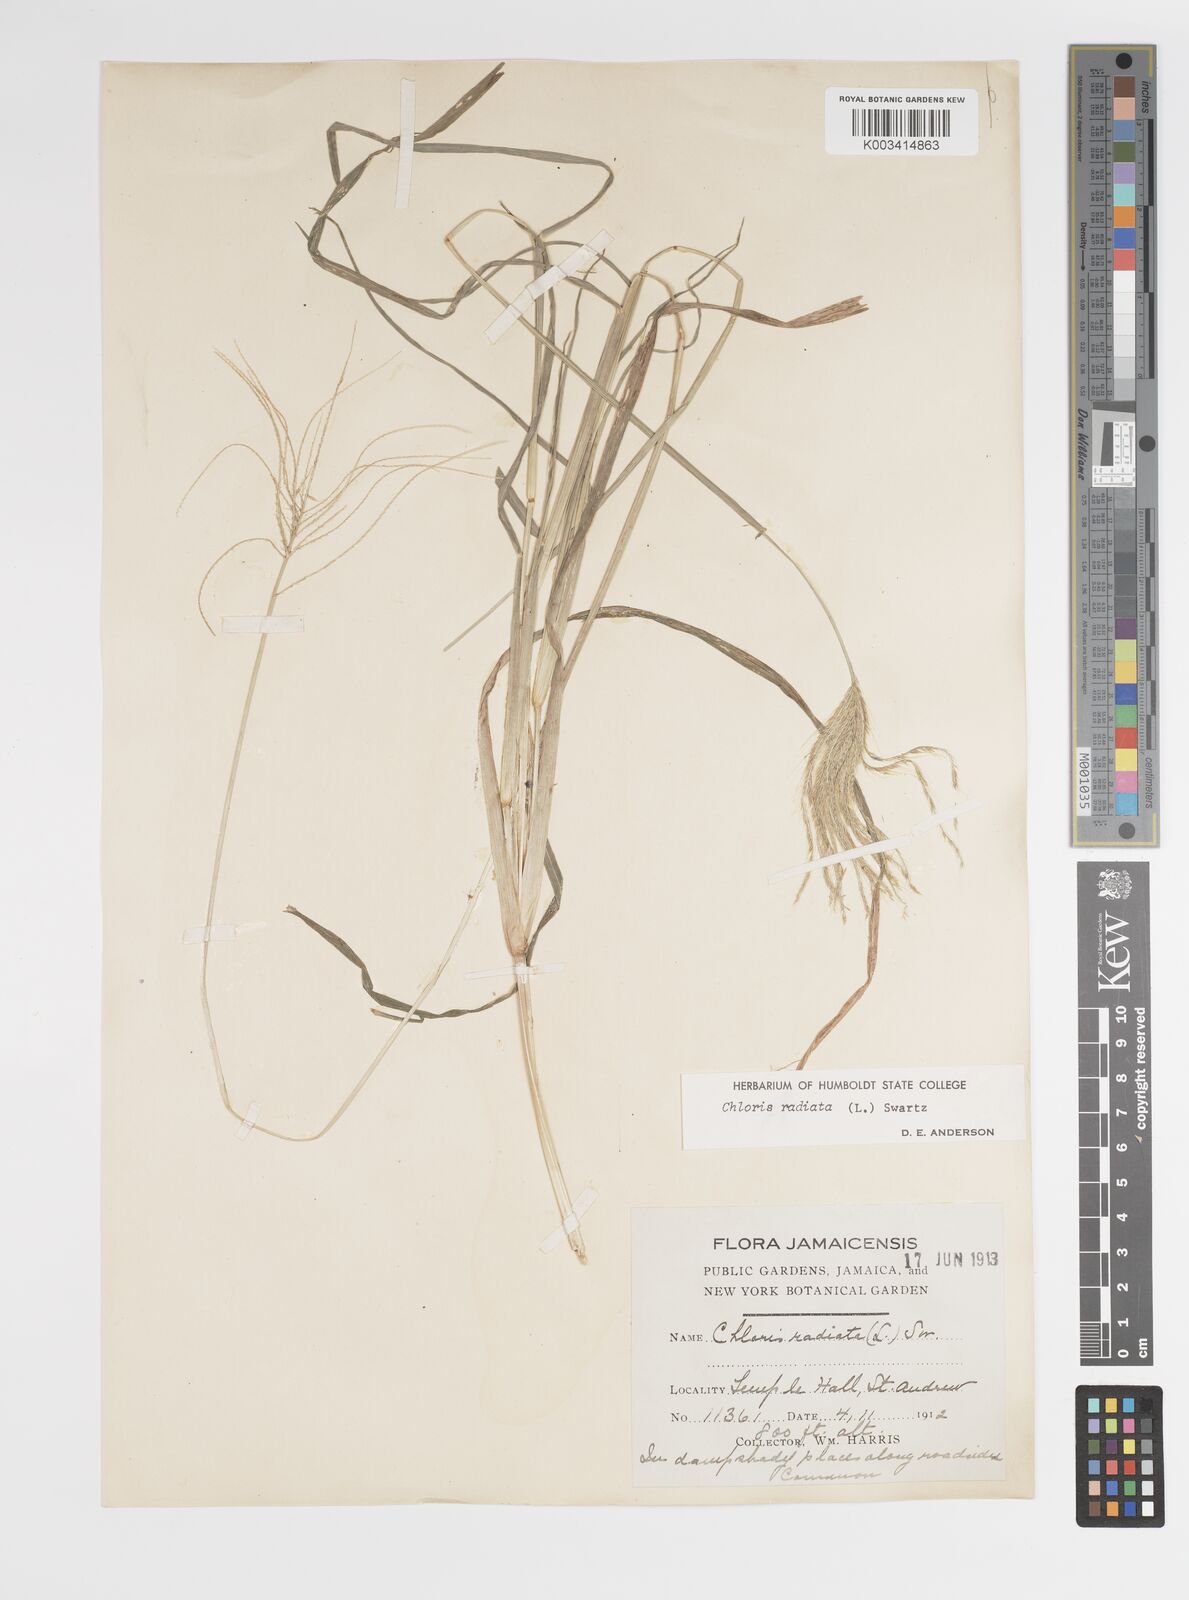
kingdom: Plantae
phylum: Tracheophyta
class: Liliopsida
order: Poales
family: Poaceae
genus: Chloris
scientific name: Chloris radiata
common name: Radiate fingergrass
